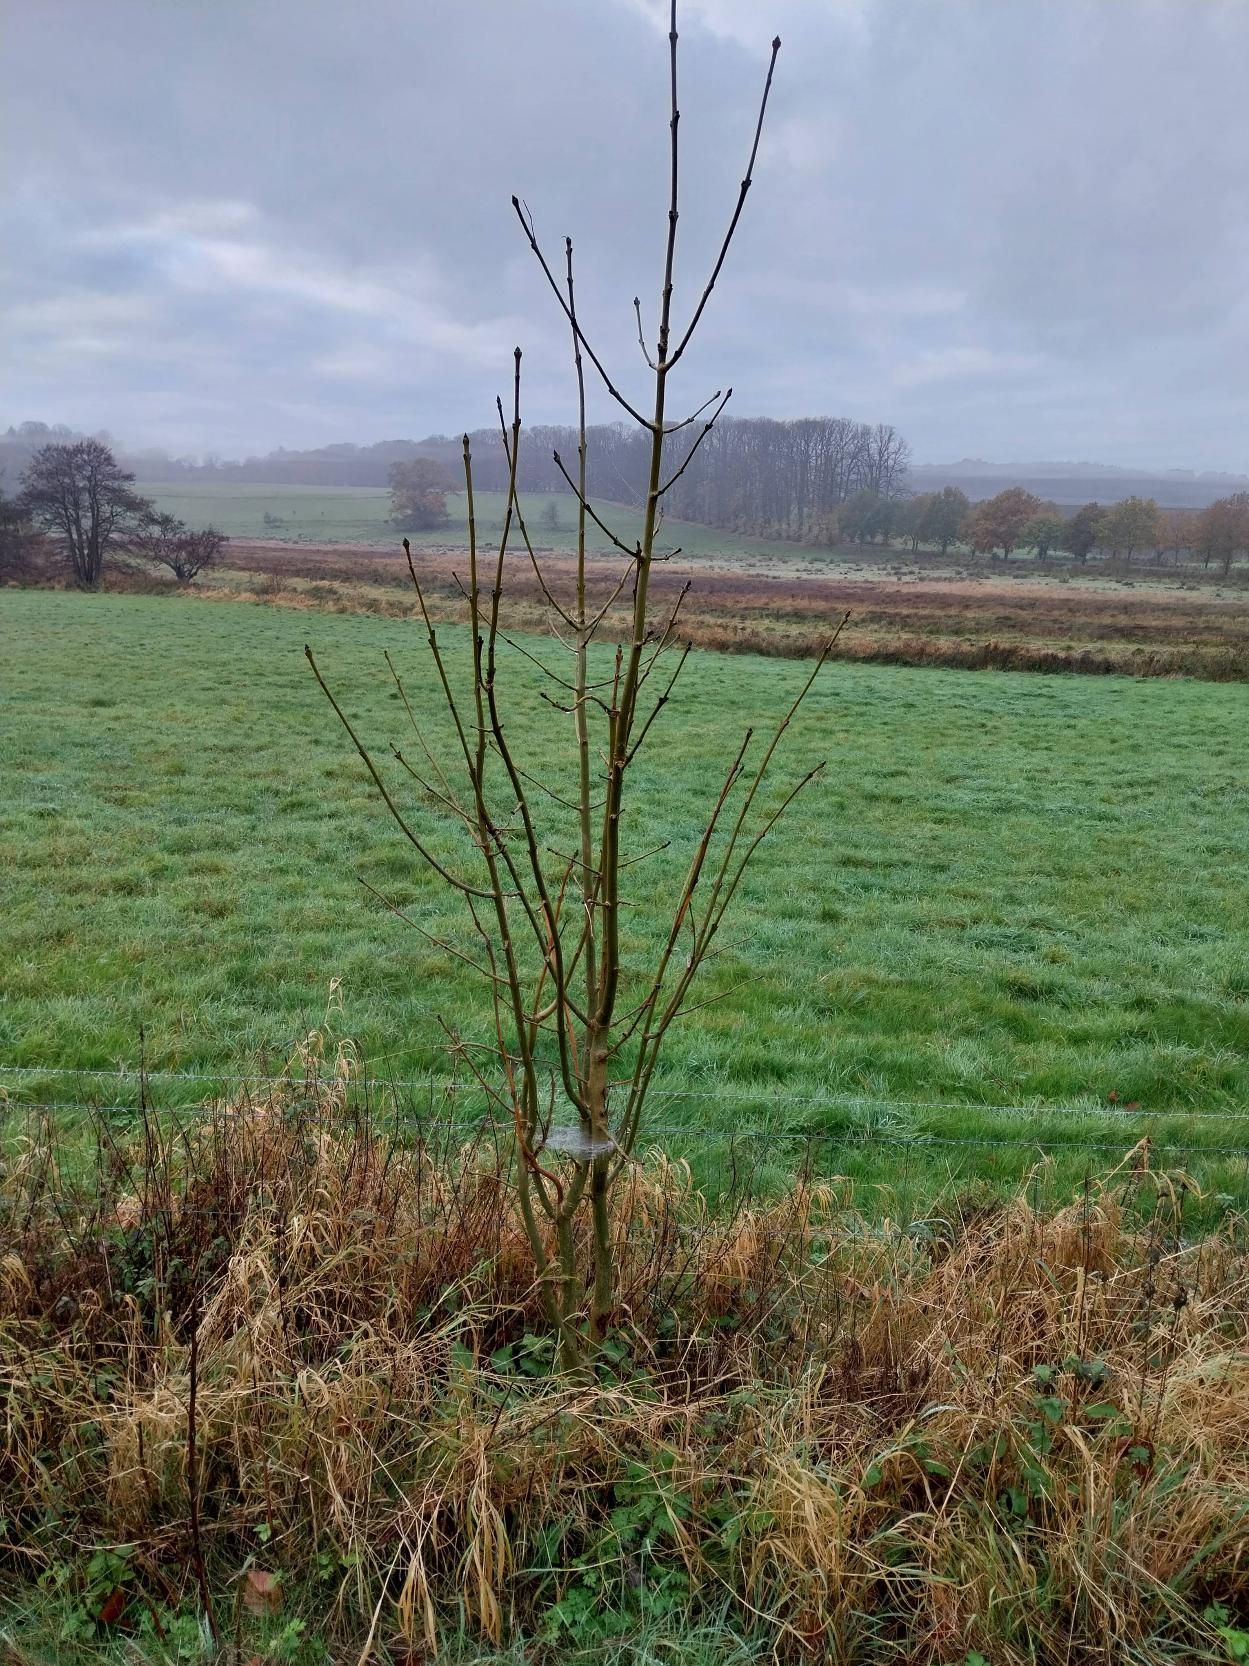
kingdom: Plantae
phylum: Tracheophyta
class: Magnoliopsida
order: Lamiales
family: Oleaceae
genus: Fraxinus
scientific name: Fraxinus excelsior
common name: Ask
